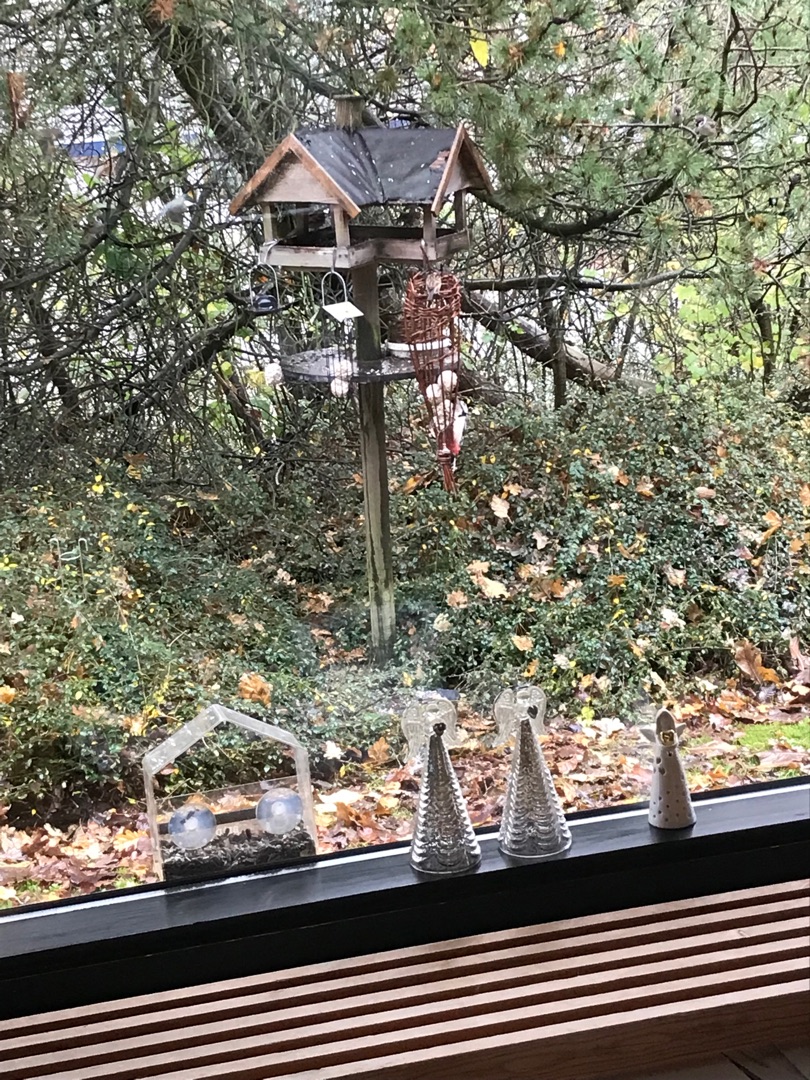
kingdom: Animalia
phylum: Chordata
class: Aves
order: Piciformes
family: Picidae
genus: Dendrocopos
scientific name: Dendrocopos major
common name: Stor flagspætte
